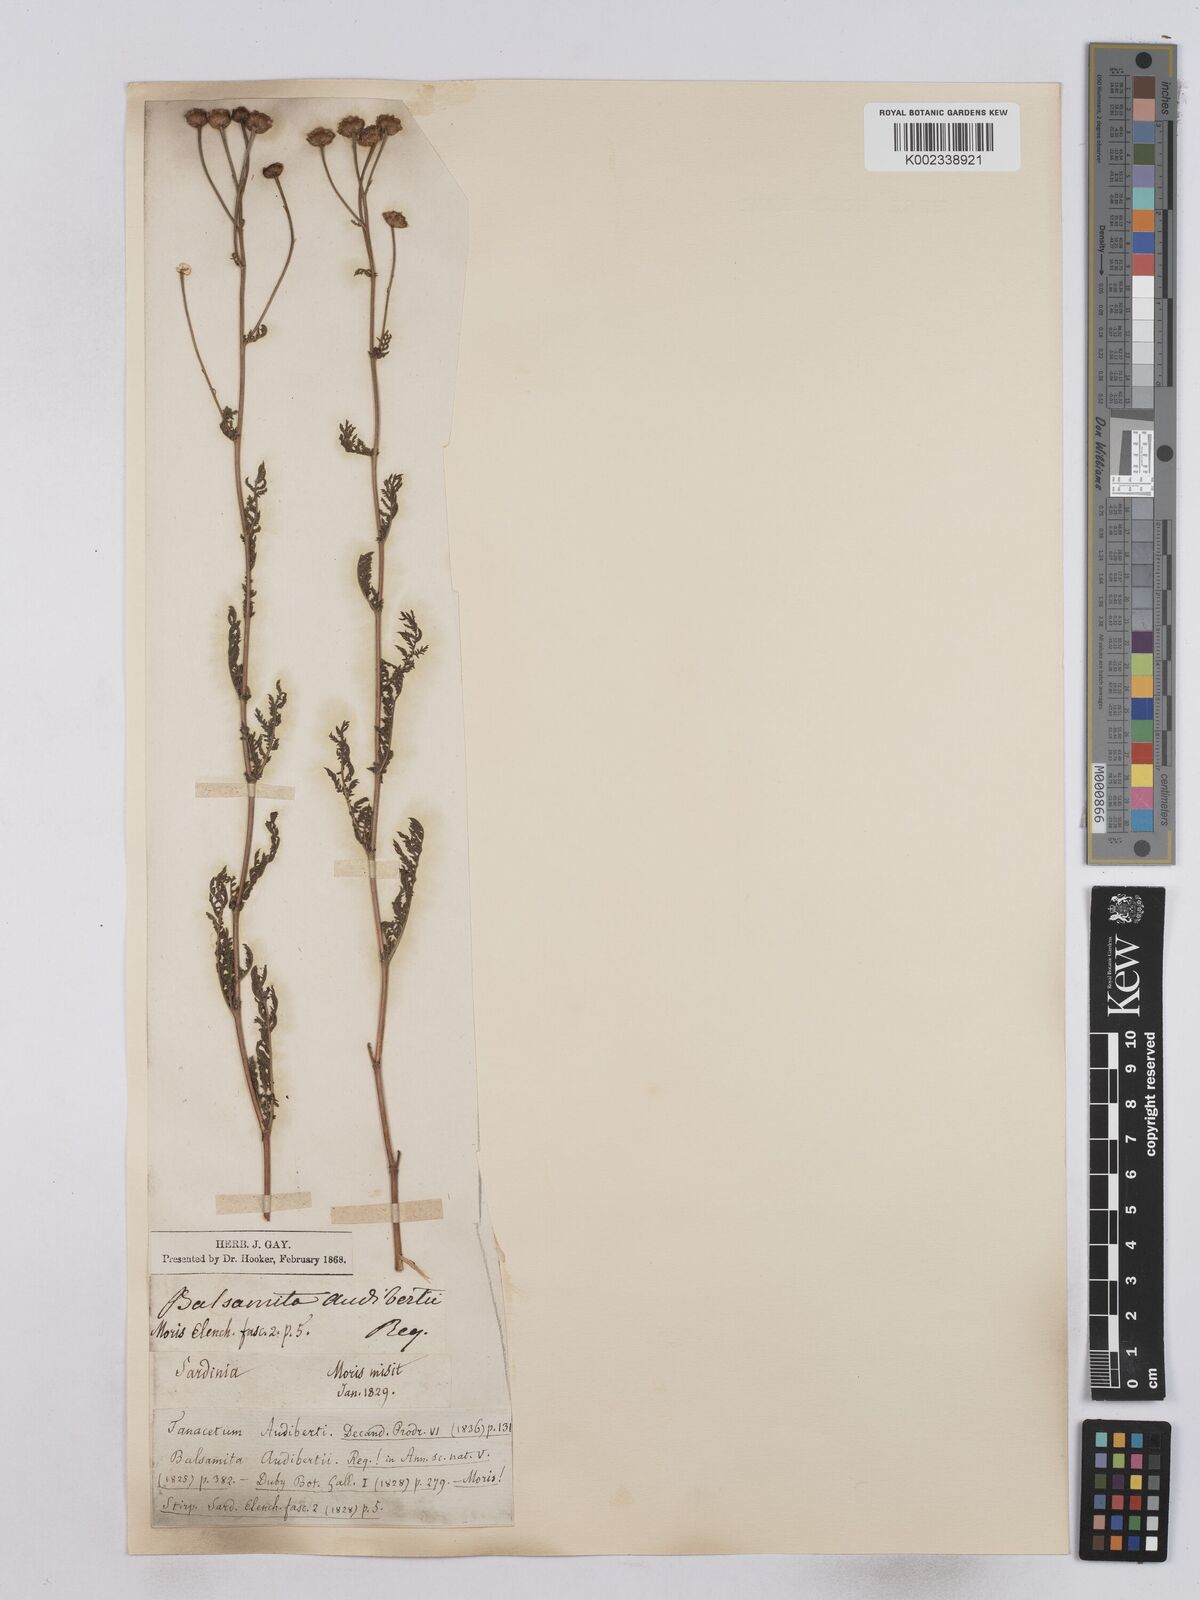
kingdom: Plantae
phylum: Tracheophyta
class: Magnoliopsida
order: Asterales
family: Asteraceae
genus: Tanacetum
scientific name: Tanacetum audibertii
